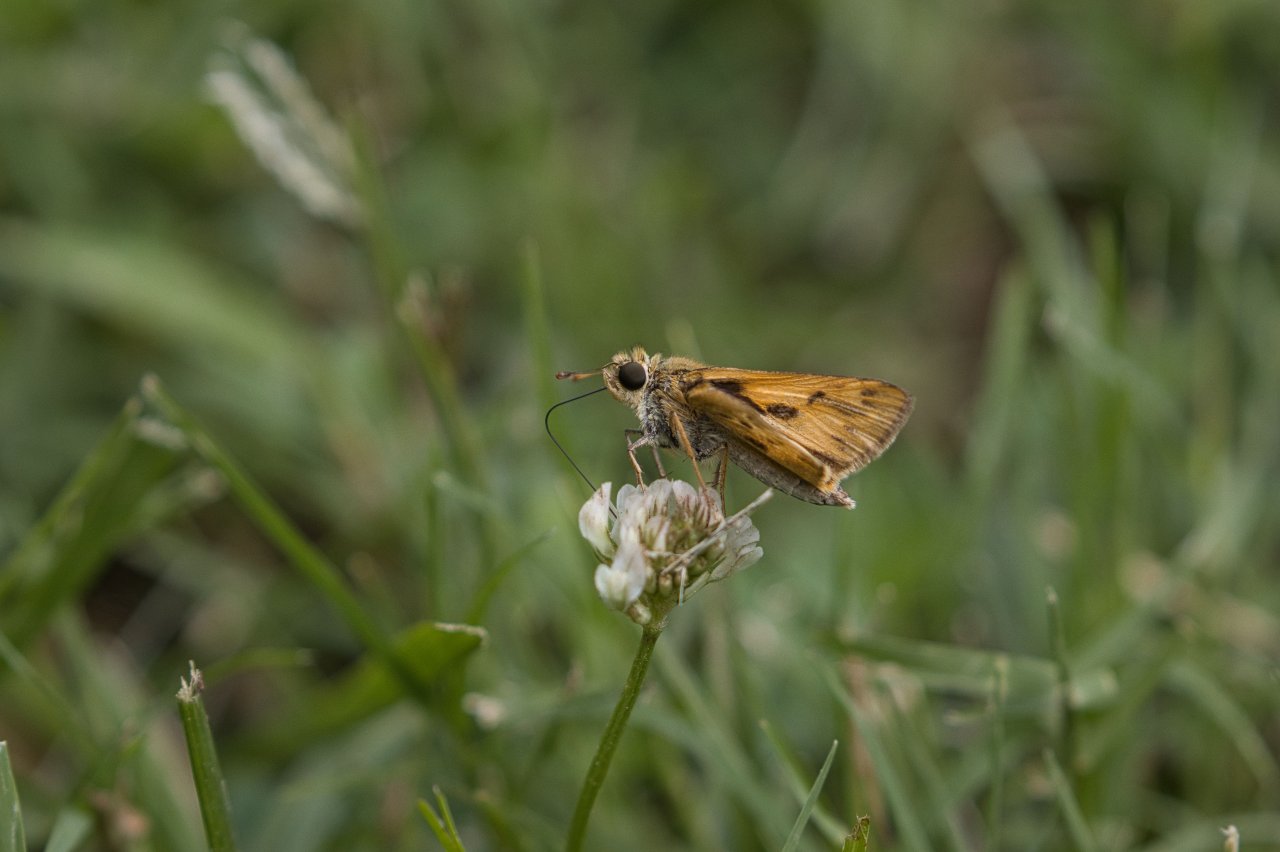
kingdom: Animalia
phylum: Arthropoda
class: Insecta
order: Lepidoptera
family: Hesperiidae
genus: Polites
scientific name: Polites vibex
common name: Whirlabout
